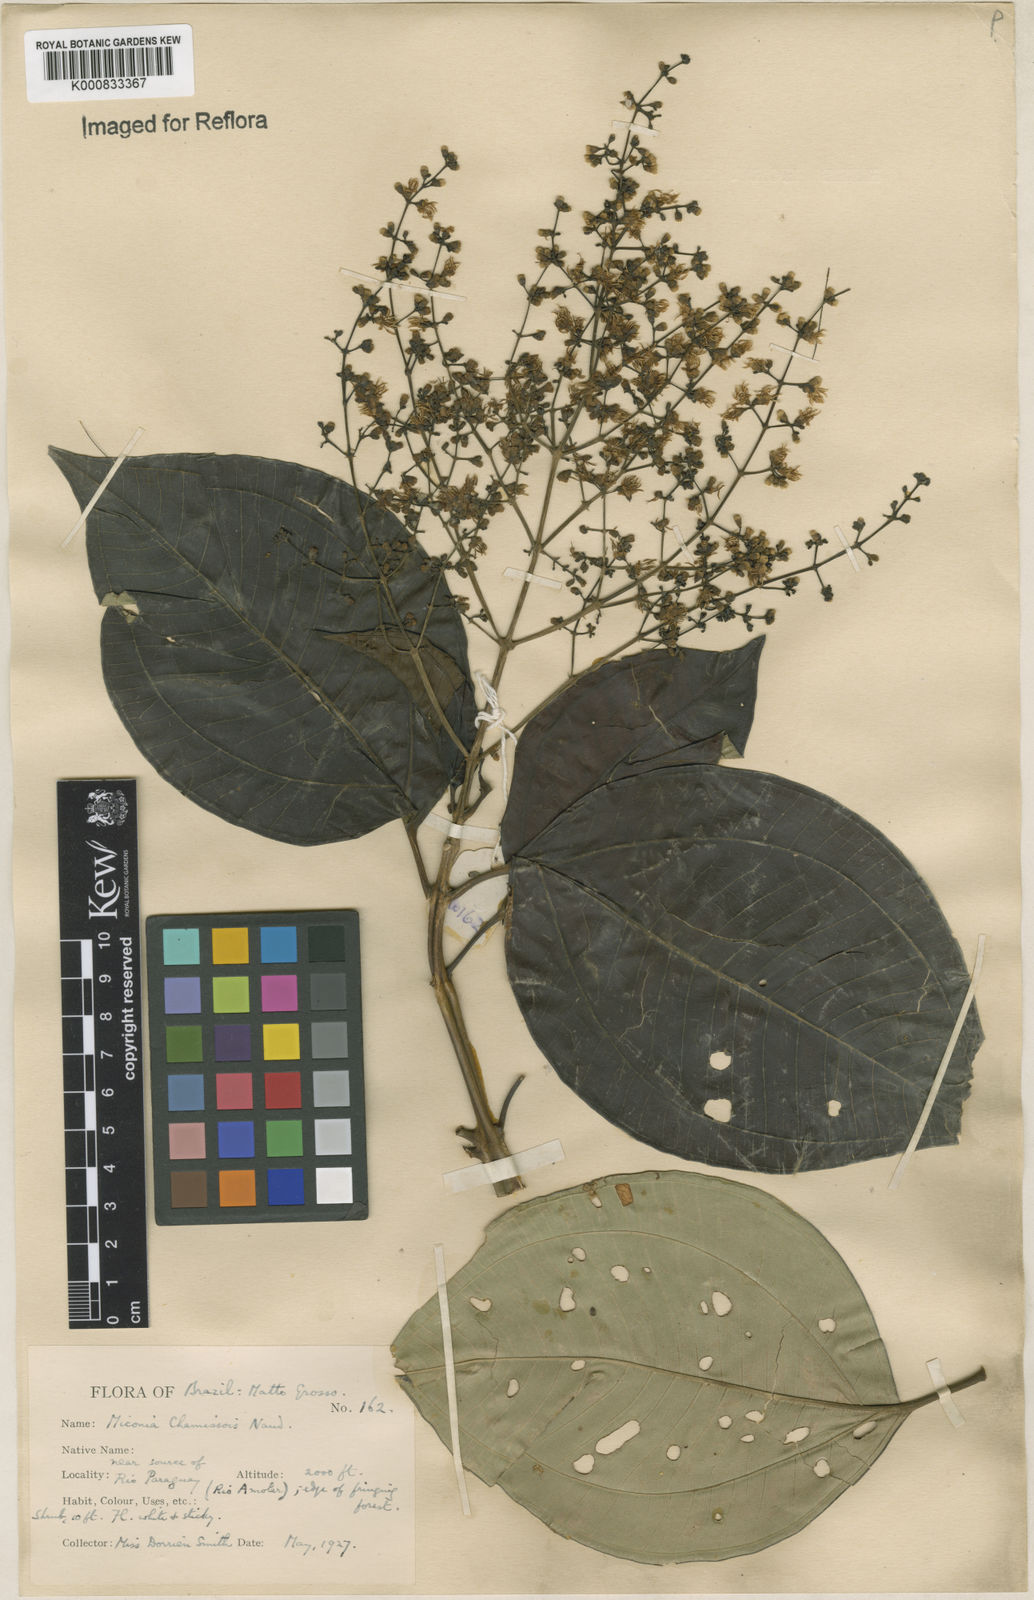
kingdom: Plantae
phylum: Tracheophyta
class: Magnoliopsida
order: Myrtales
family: Melastomataceae
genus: Miconia
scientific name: Miconia chamissois
